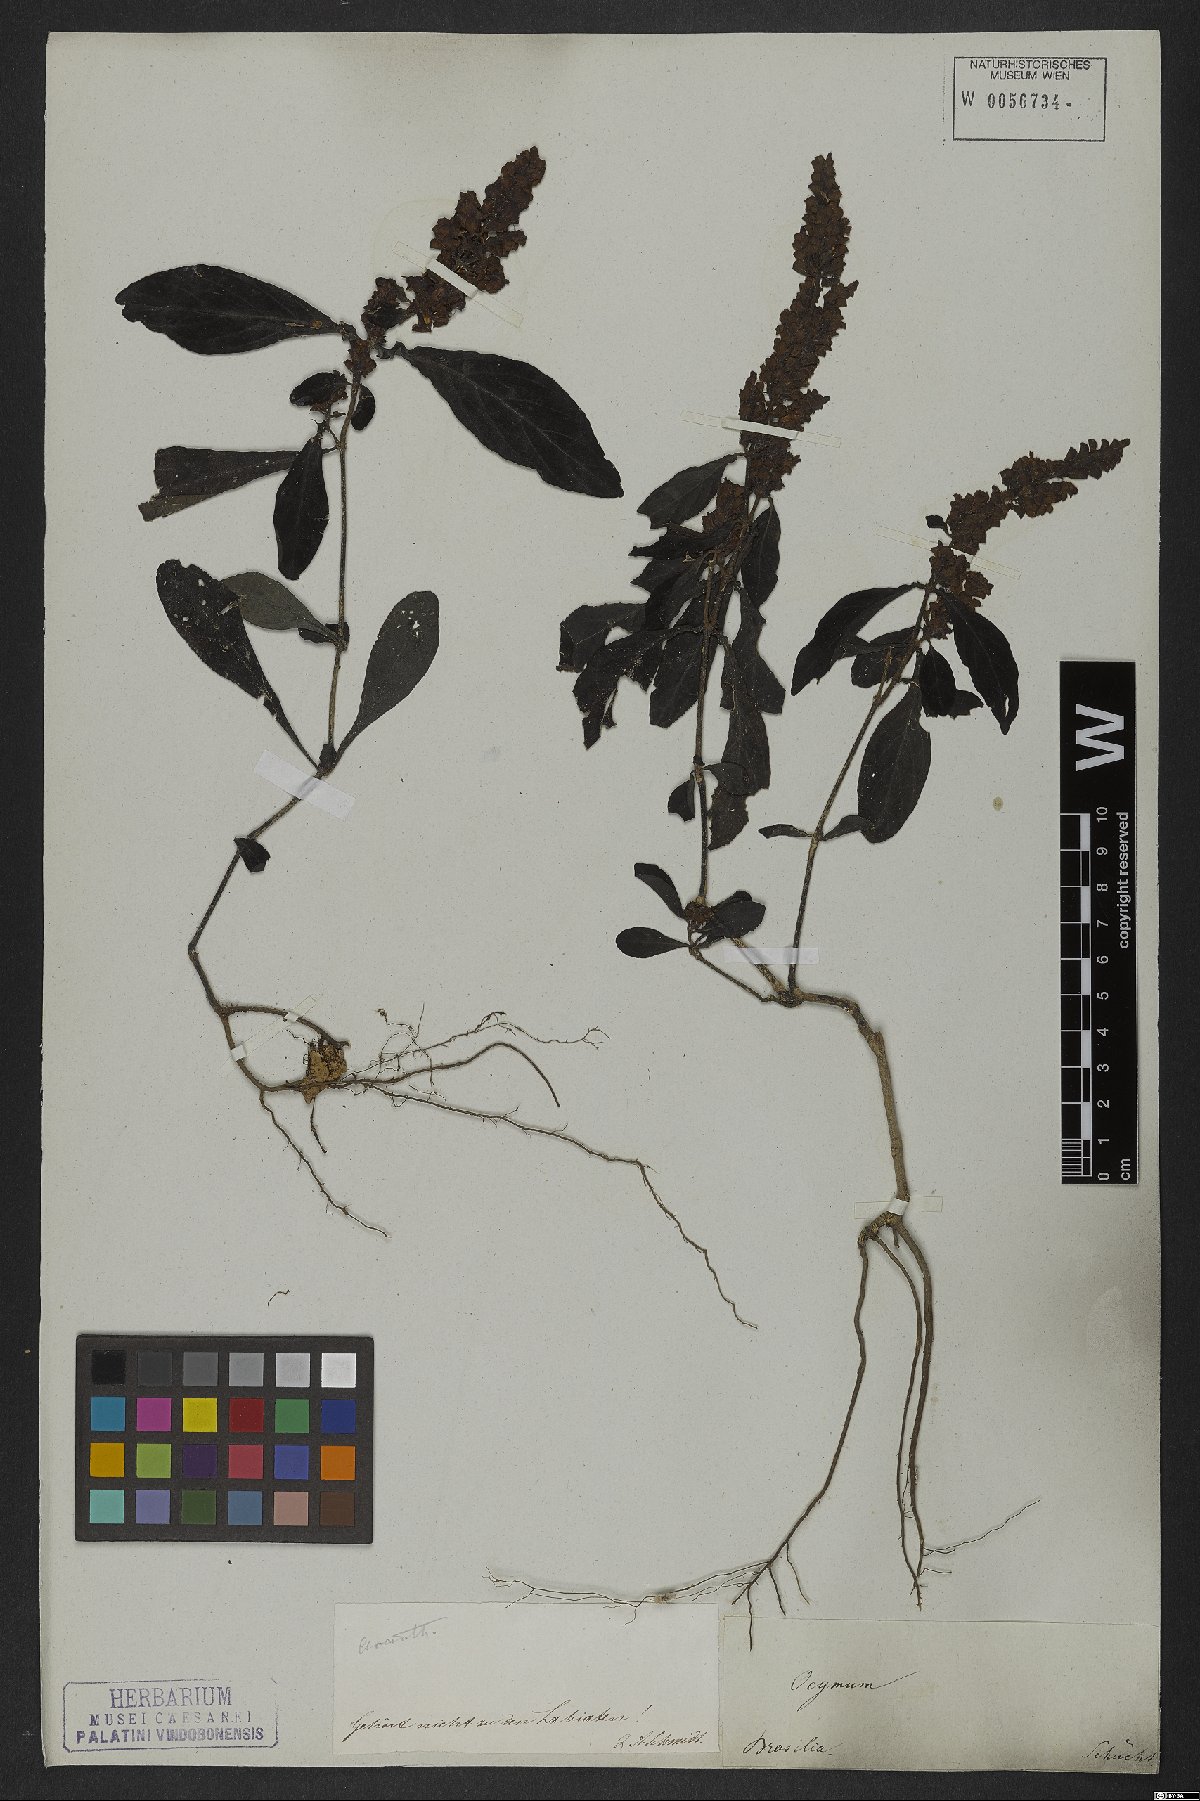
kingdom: Plantae
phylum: Tracheophyta
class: Magnoliopsida
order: Lamiales
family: Acanthaceae
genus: Dianthera
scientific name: Dianthera brasiliensis
